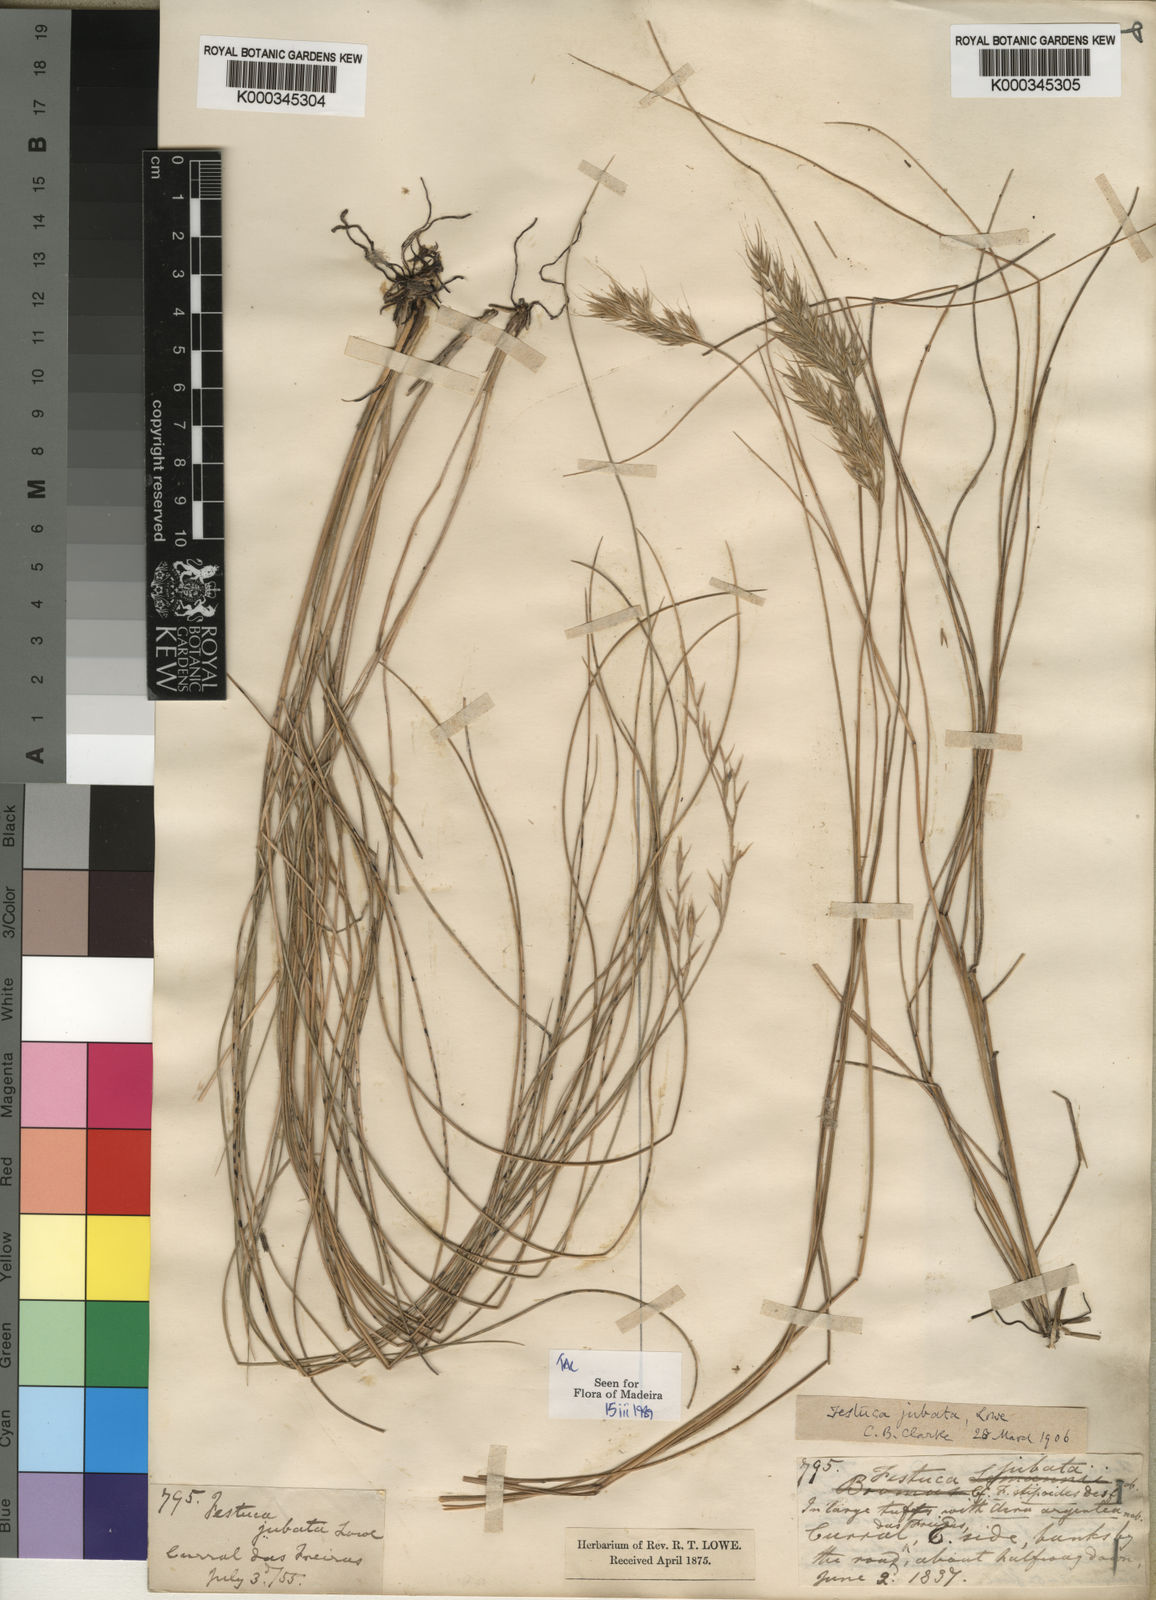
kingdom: Plantae
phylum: Tracheophyta
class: Liliopsida
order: Poales
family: Poaceae
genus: Festuca
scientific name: Festuca jubata
